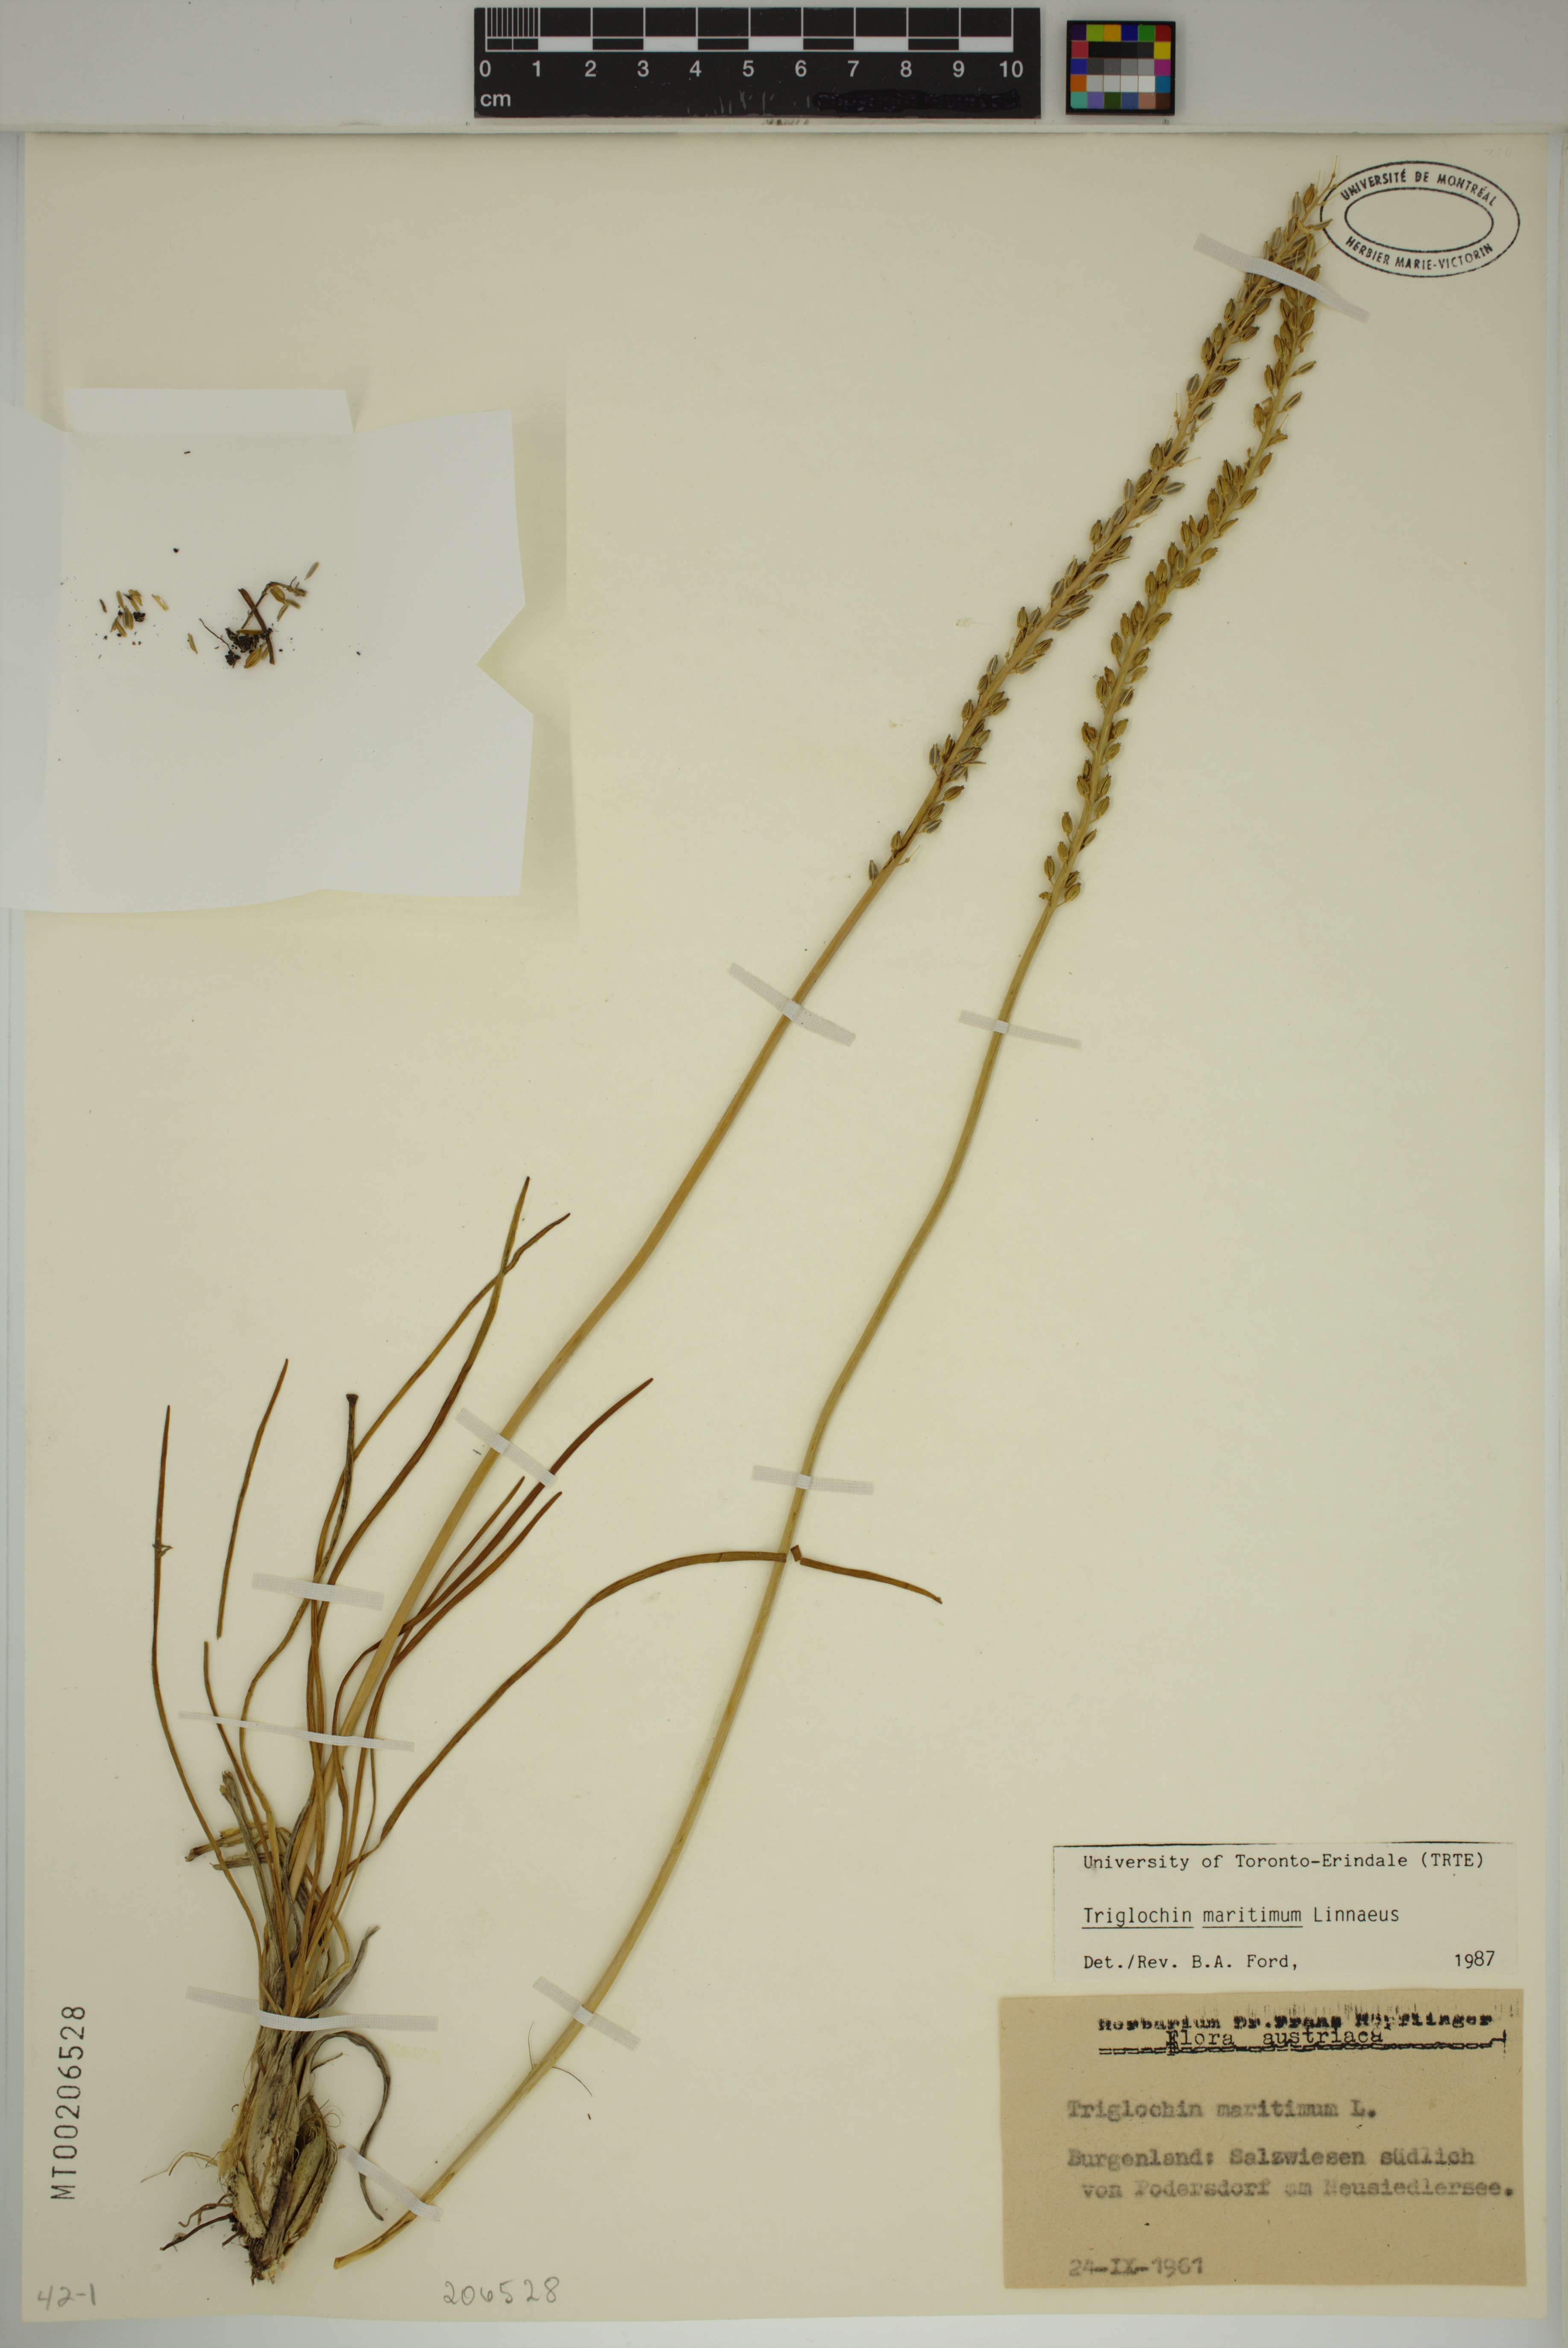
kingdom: Plantae
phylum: Tracheophyta
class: Liliopsida
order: Alismatales
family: Juncaginaceae
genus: Triglochin
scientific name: Triglochin maritima
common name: Sea arrowgrass
